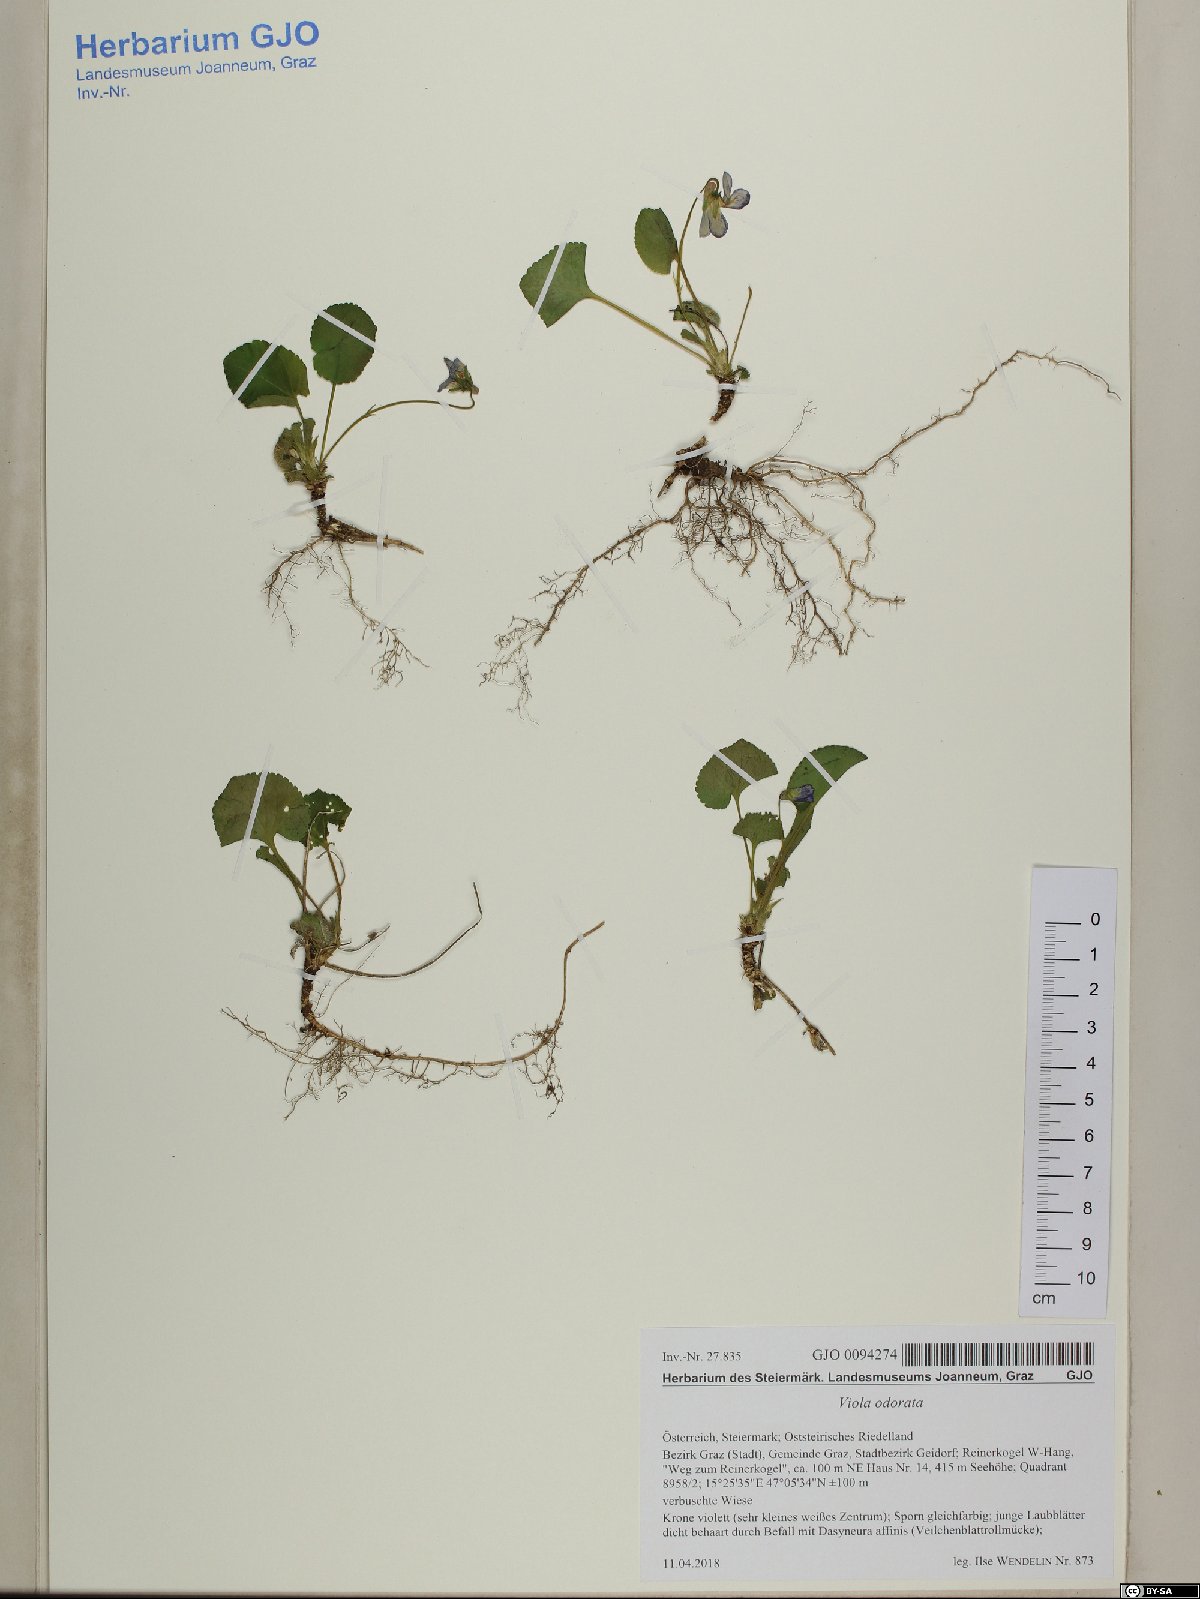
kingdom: Plantae
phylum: Tracheophyta
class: Magnoliopsida
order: Malpighiales
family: Violaceae
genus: Viola
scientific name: Viola odorata
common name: Sweet violet
